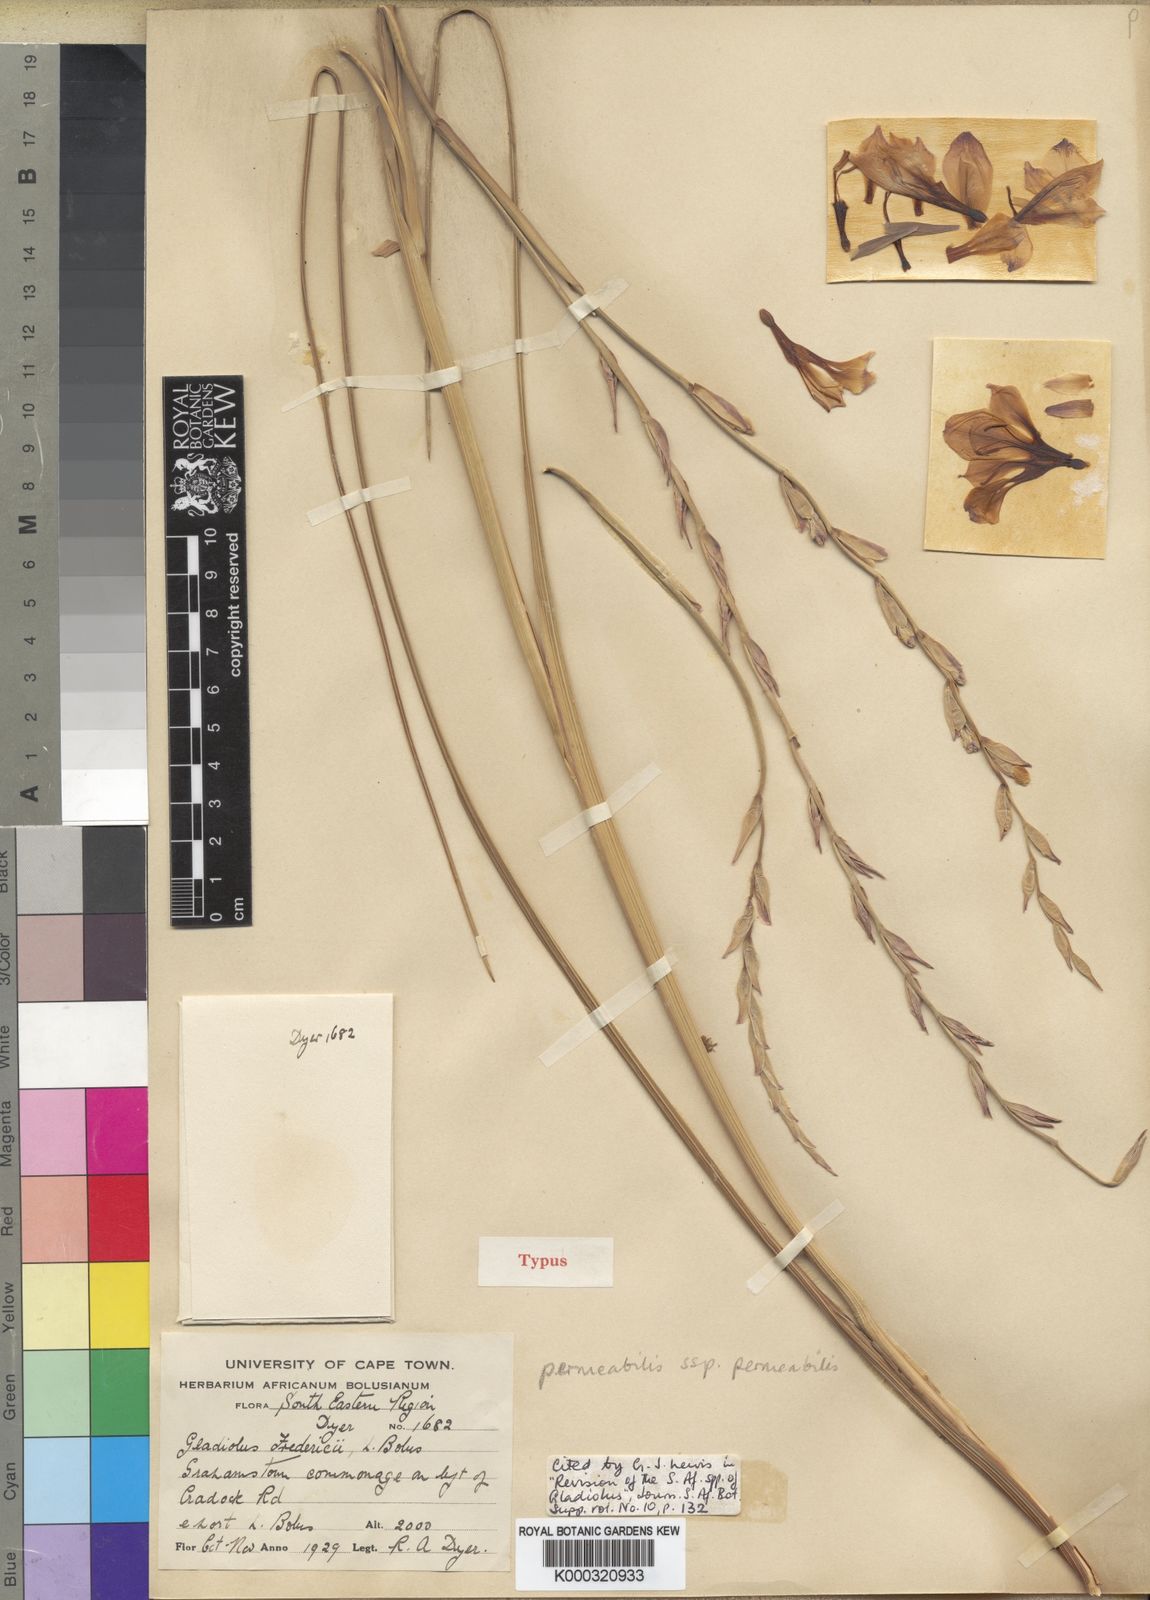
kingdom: Plantae
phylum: Tracheophyta
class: Liliopsida
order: Asparagales
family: Iridaceae
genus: Gladiolus
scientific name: Gladiolus wilsonii
